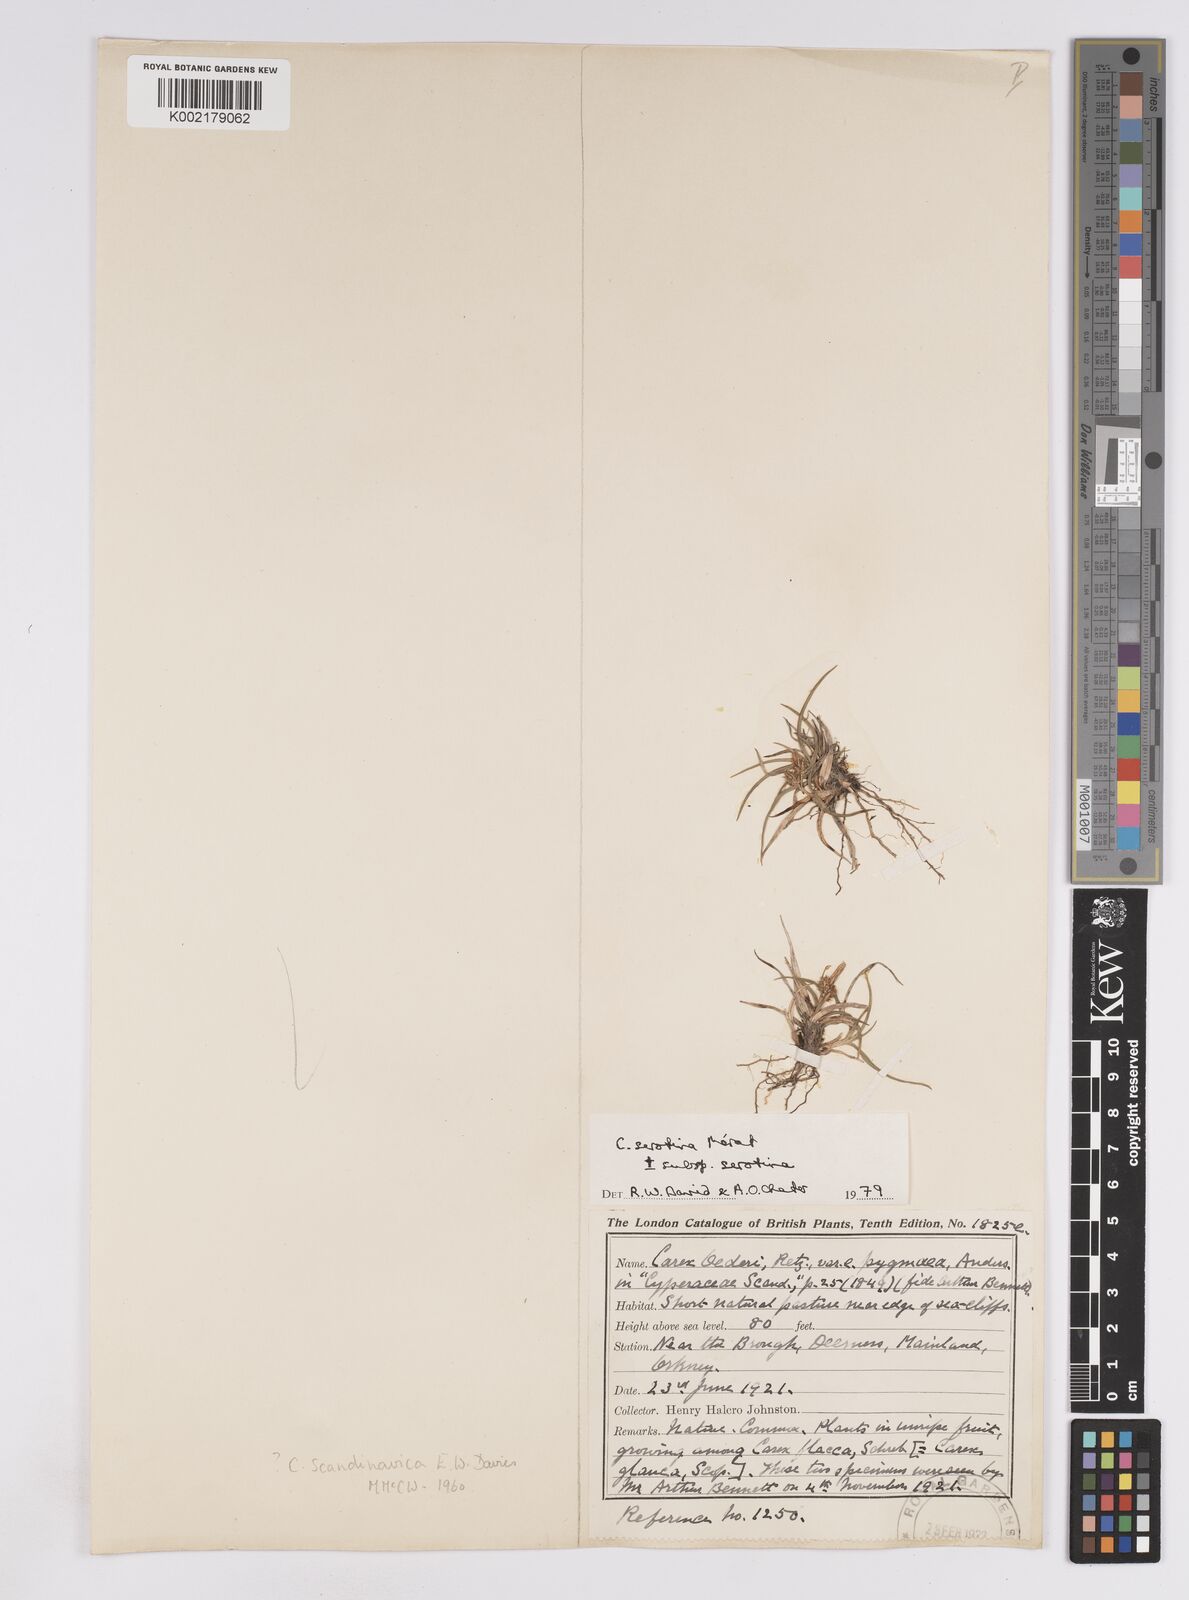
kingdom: Plantae
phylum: Tracheophyta
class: Liliopsida
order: Poales
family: Cyperaceae
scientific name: Cyperaceae
